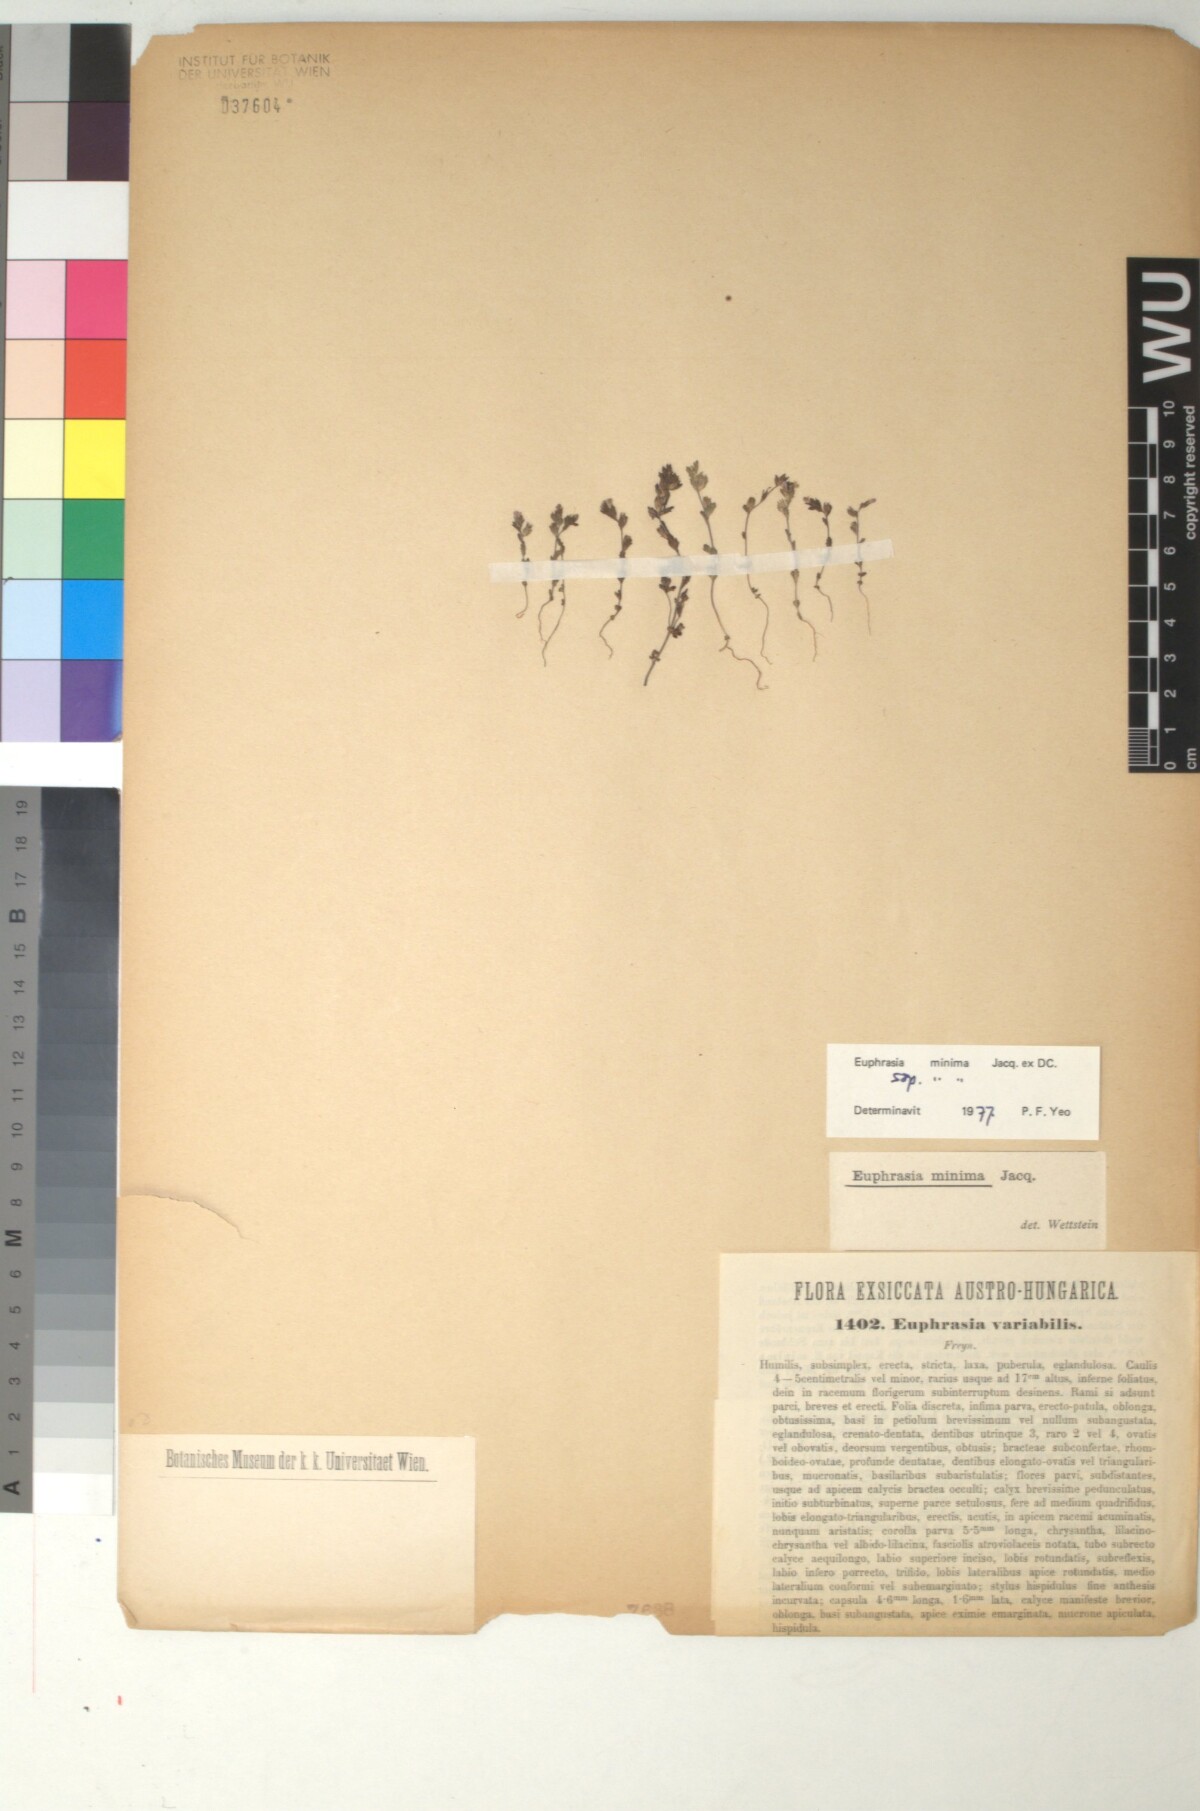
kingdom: Plantae
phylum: Tracheophyta
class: Magnoliopsida
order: Lamiales
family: Orobanchaceae
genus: Euphrasia
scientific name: Euphrasia variabilis
